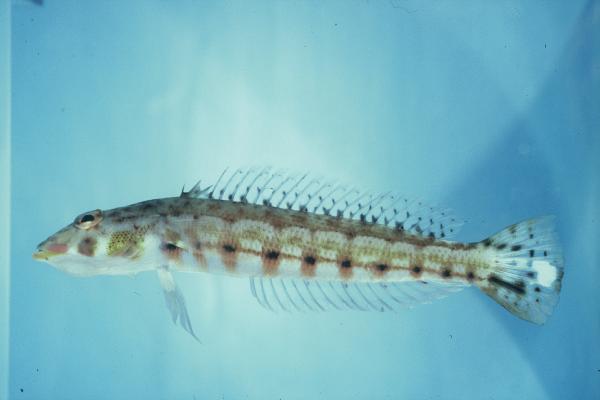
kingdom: Animalia
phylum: Chordata
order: Perciformes
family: Pinguipedidae
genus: Parapercis
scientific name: Parapercis clathrata
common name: Latticed sandperch
